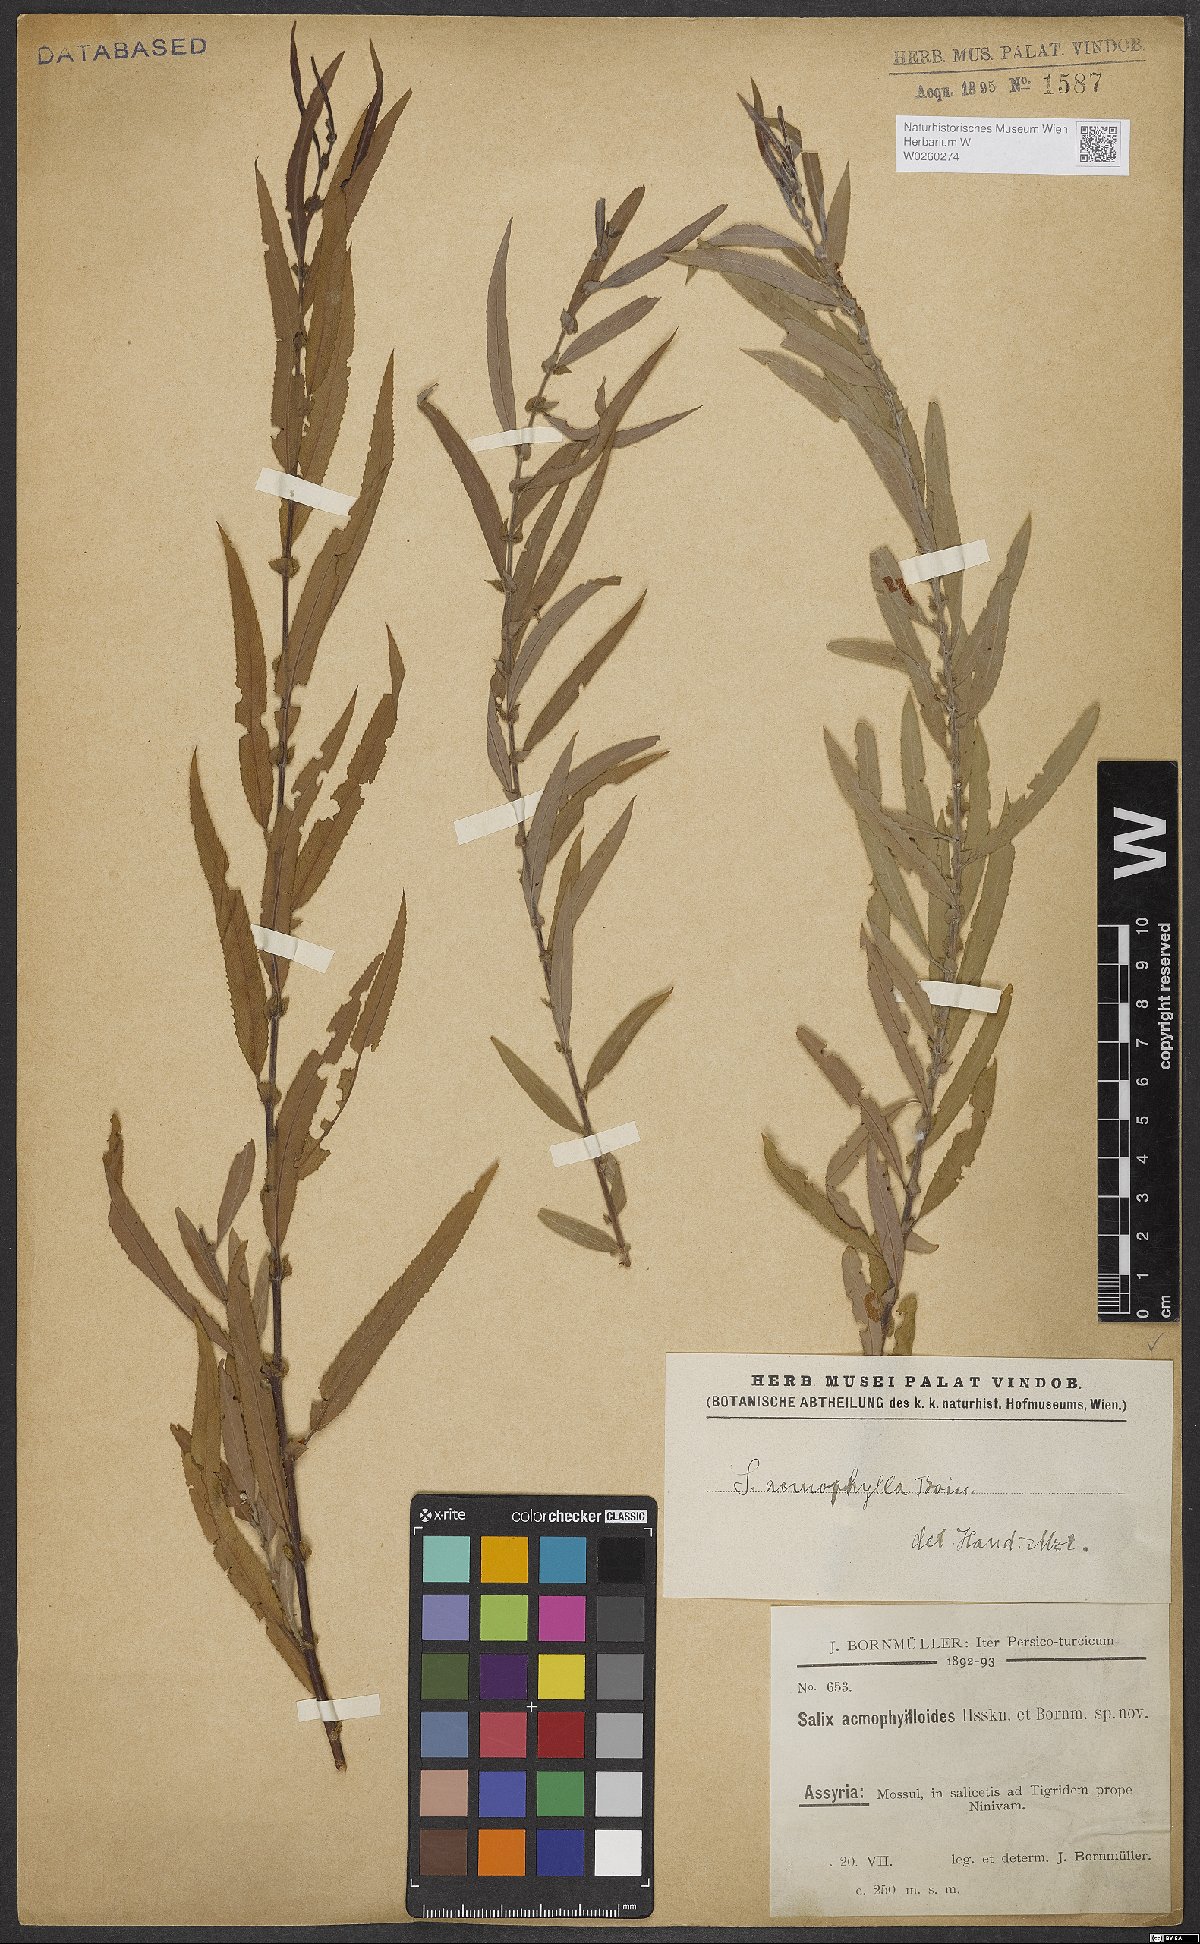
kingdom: Plantae
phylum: Tracheophyta
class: Magnoliopsida
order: Malpighiales
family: Salicaceae
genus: Salix
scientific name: Salix acmophylla
